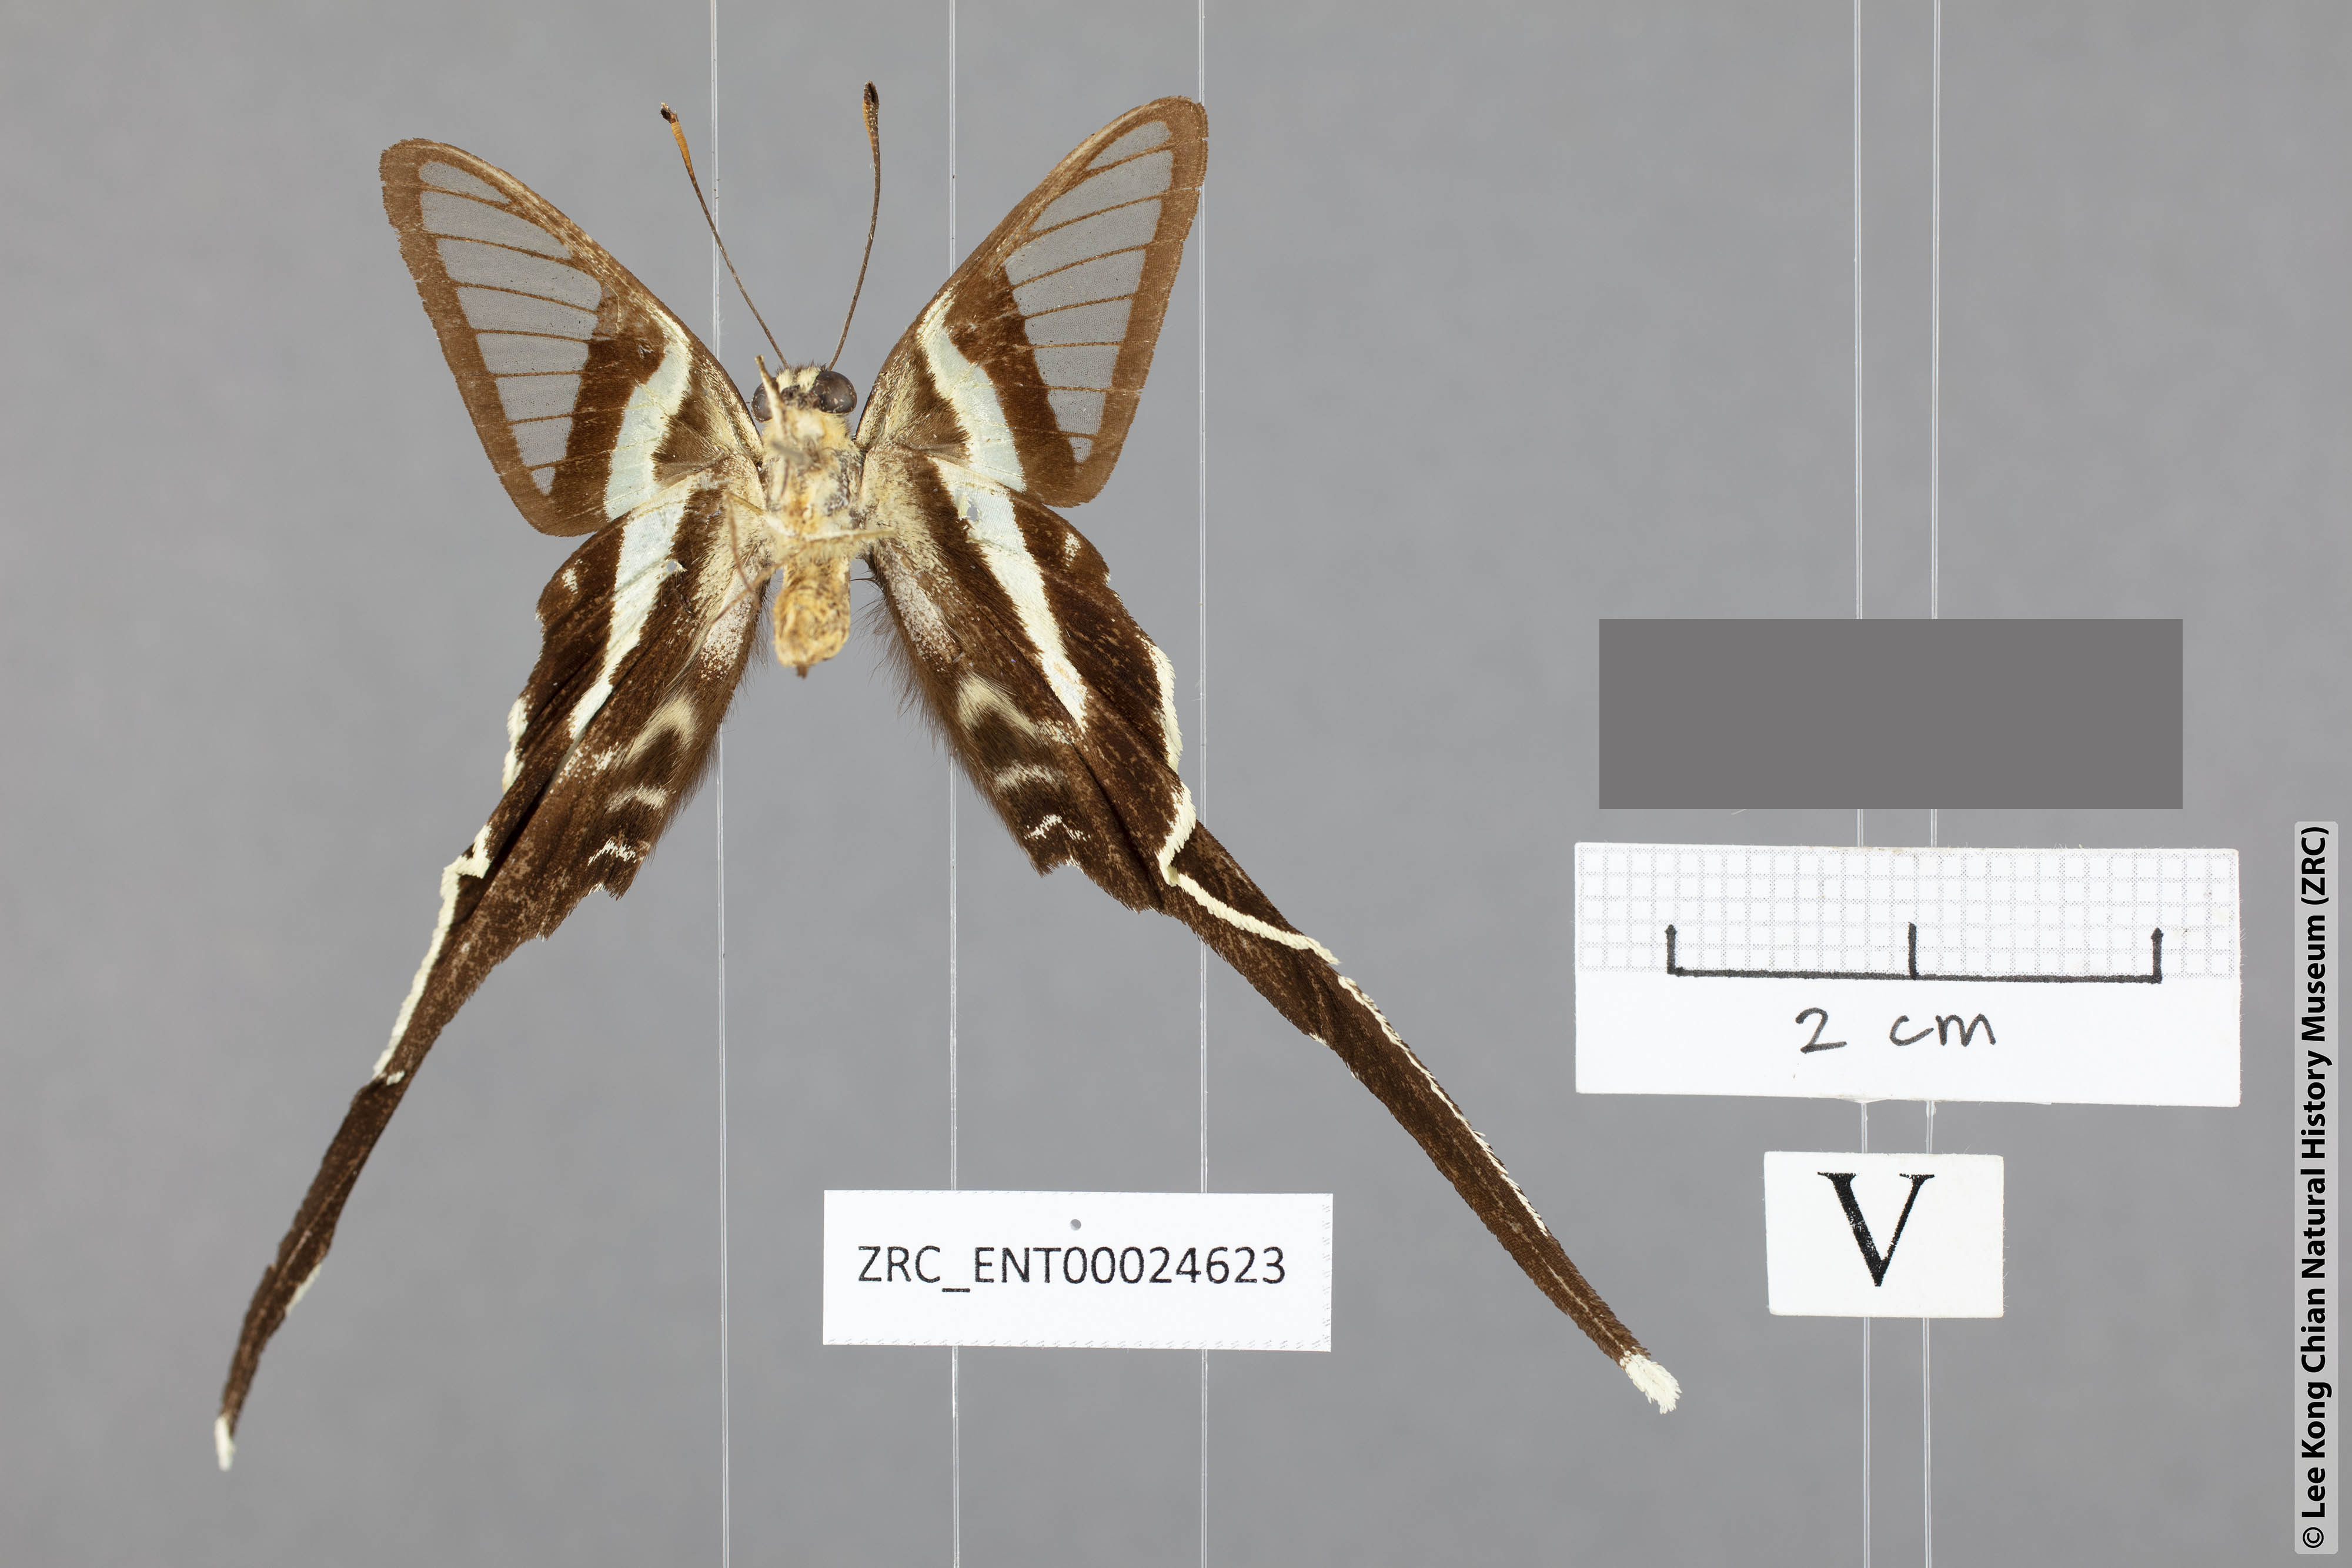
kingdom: Animalia
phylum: Arthropoda
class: Insecta
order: Lepidoptera
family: Papilionidae
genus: Lamproptera
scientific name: Lamproptera meges
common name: Green dragontail
